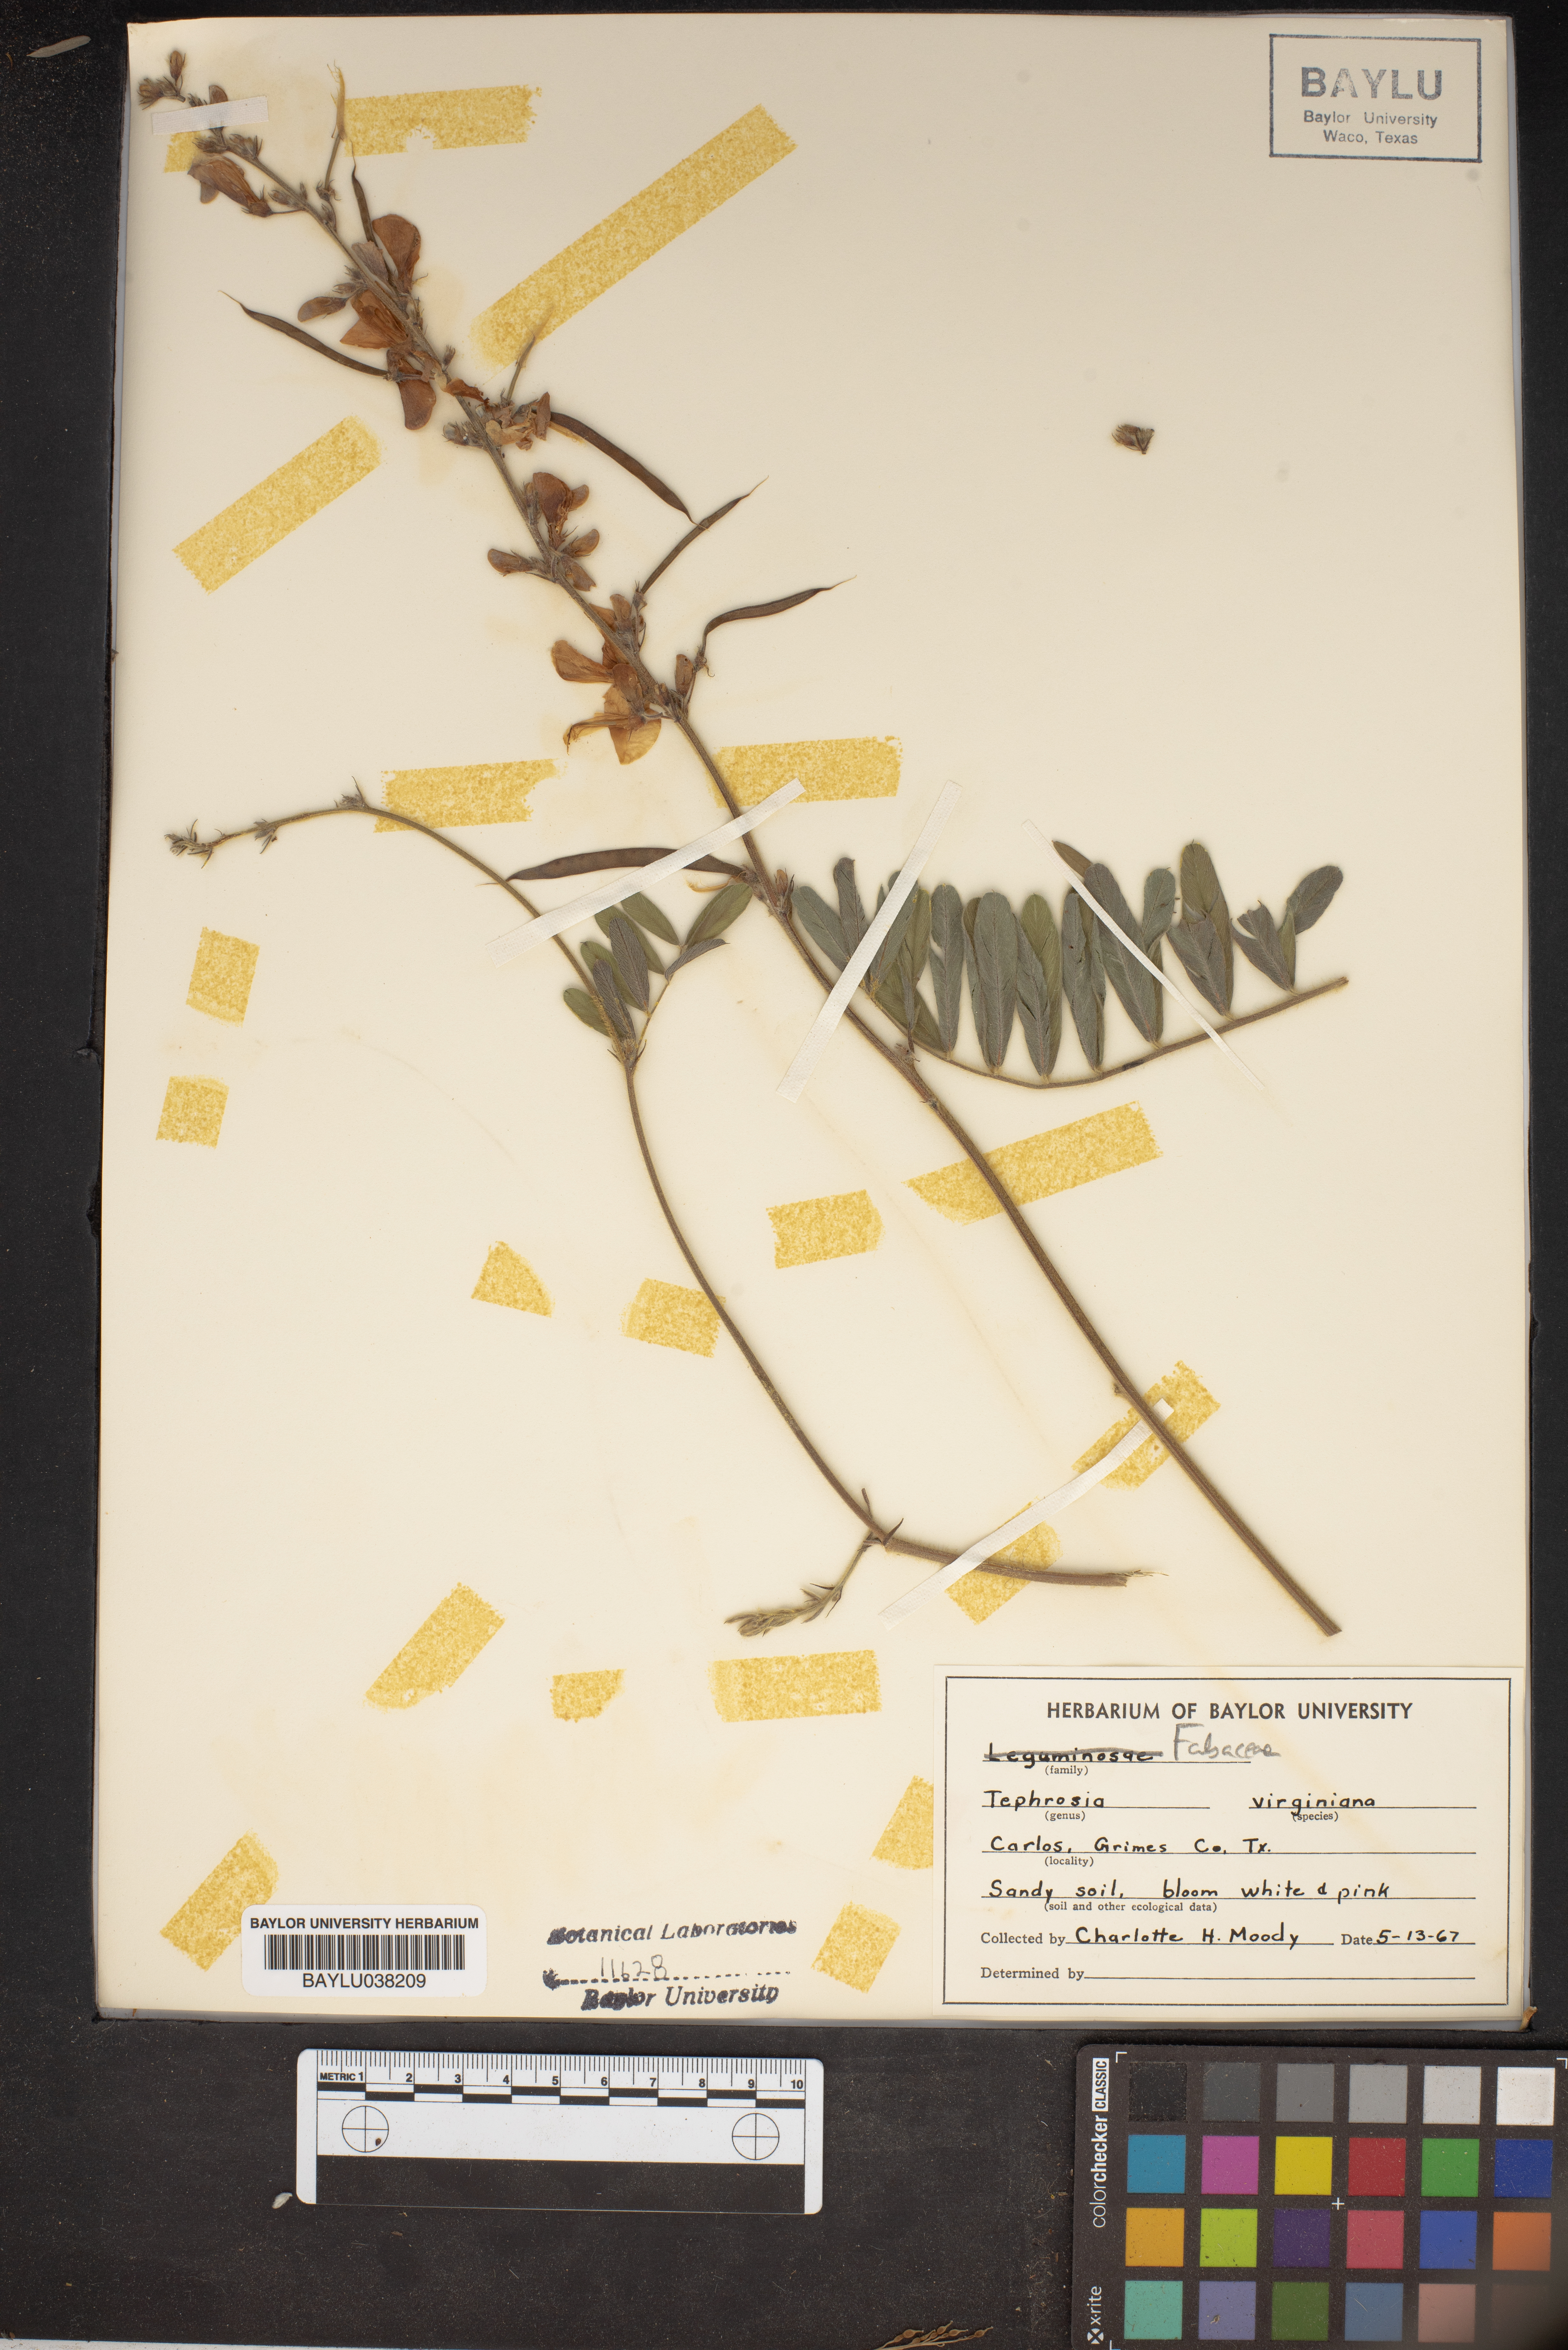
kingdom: Plantae
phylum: Tracheophyta
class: Magnoliopsida
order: Fabales
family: Fabaceae
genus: Tephrosia
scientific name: Tephrosia virginiana
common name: Rabbit-pea
